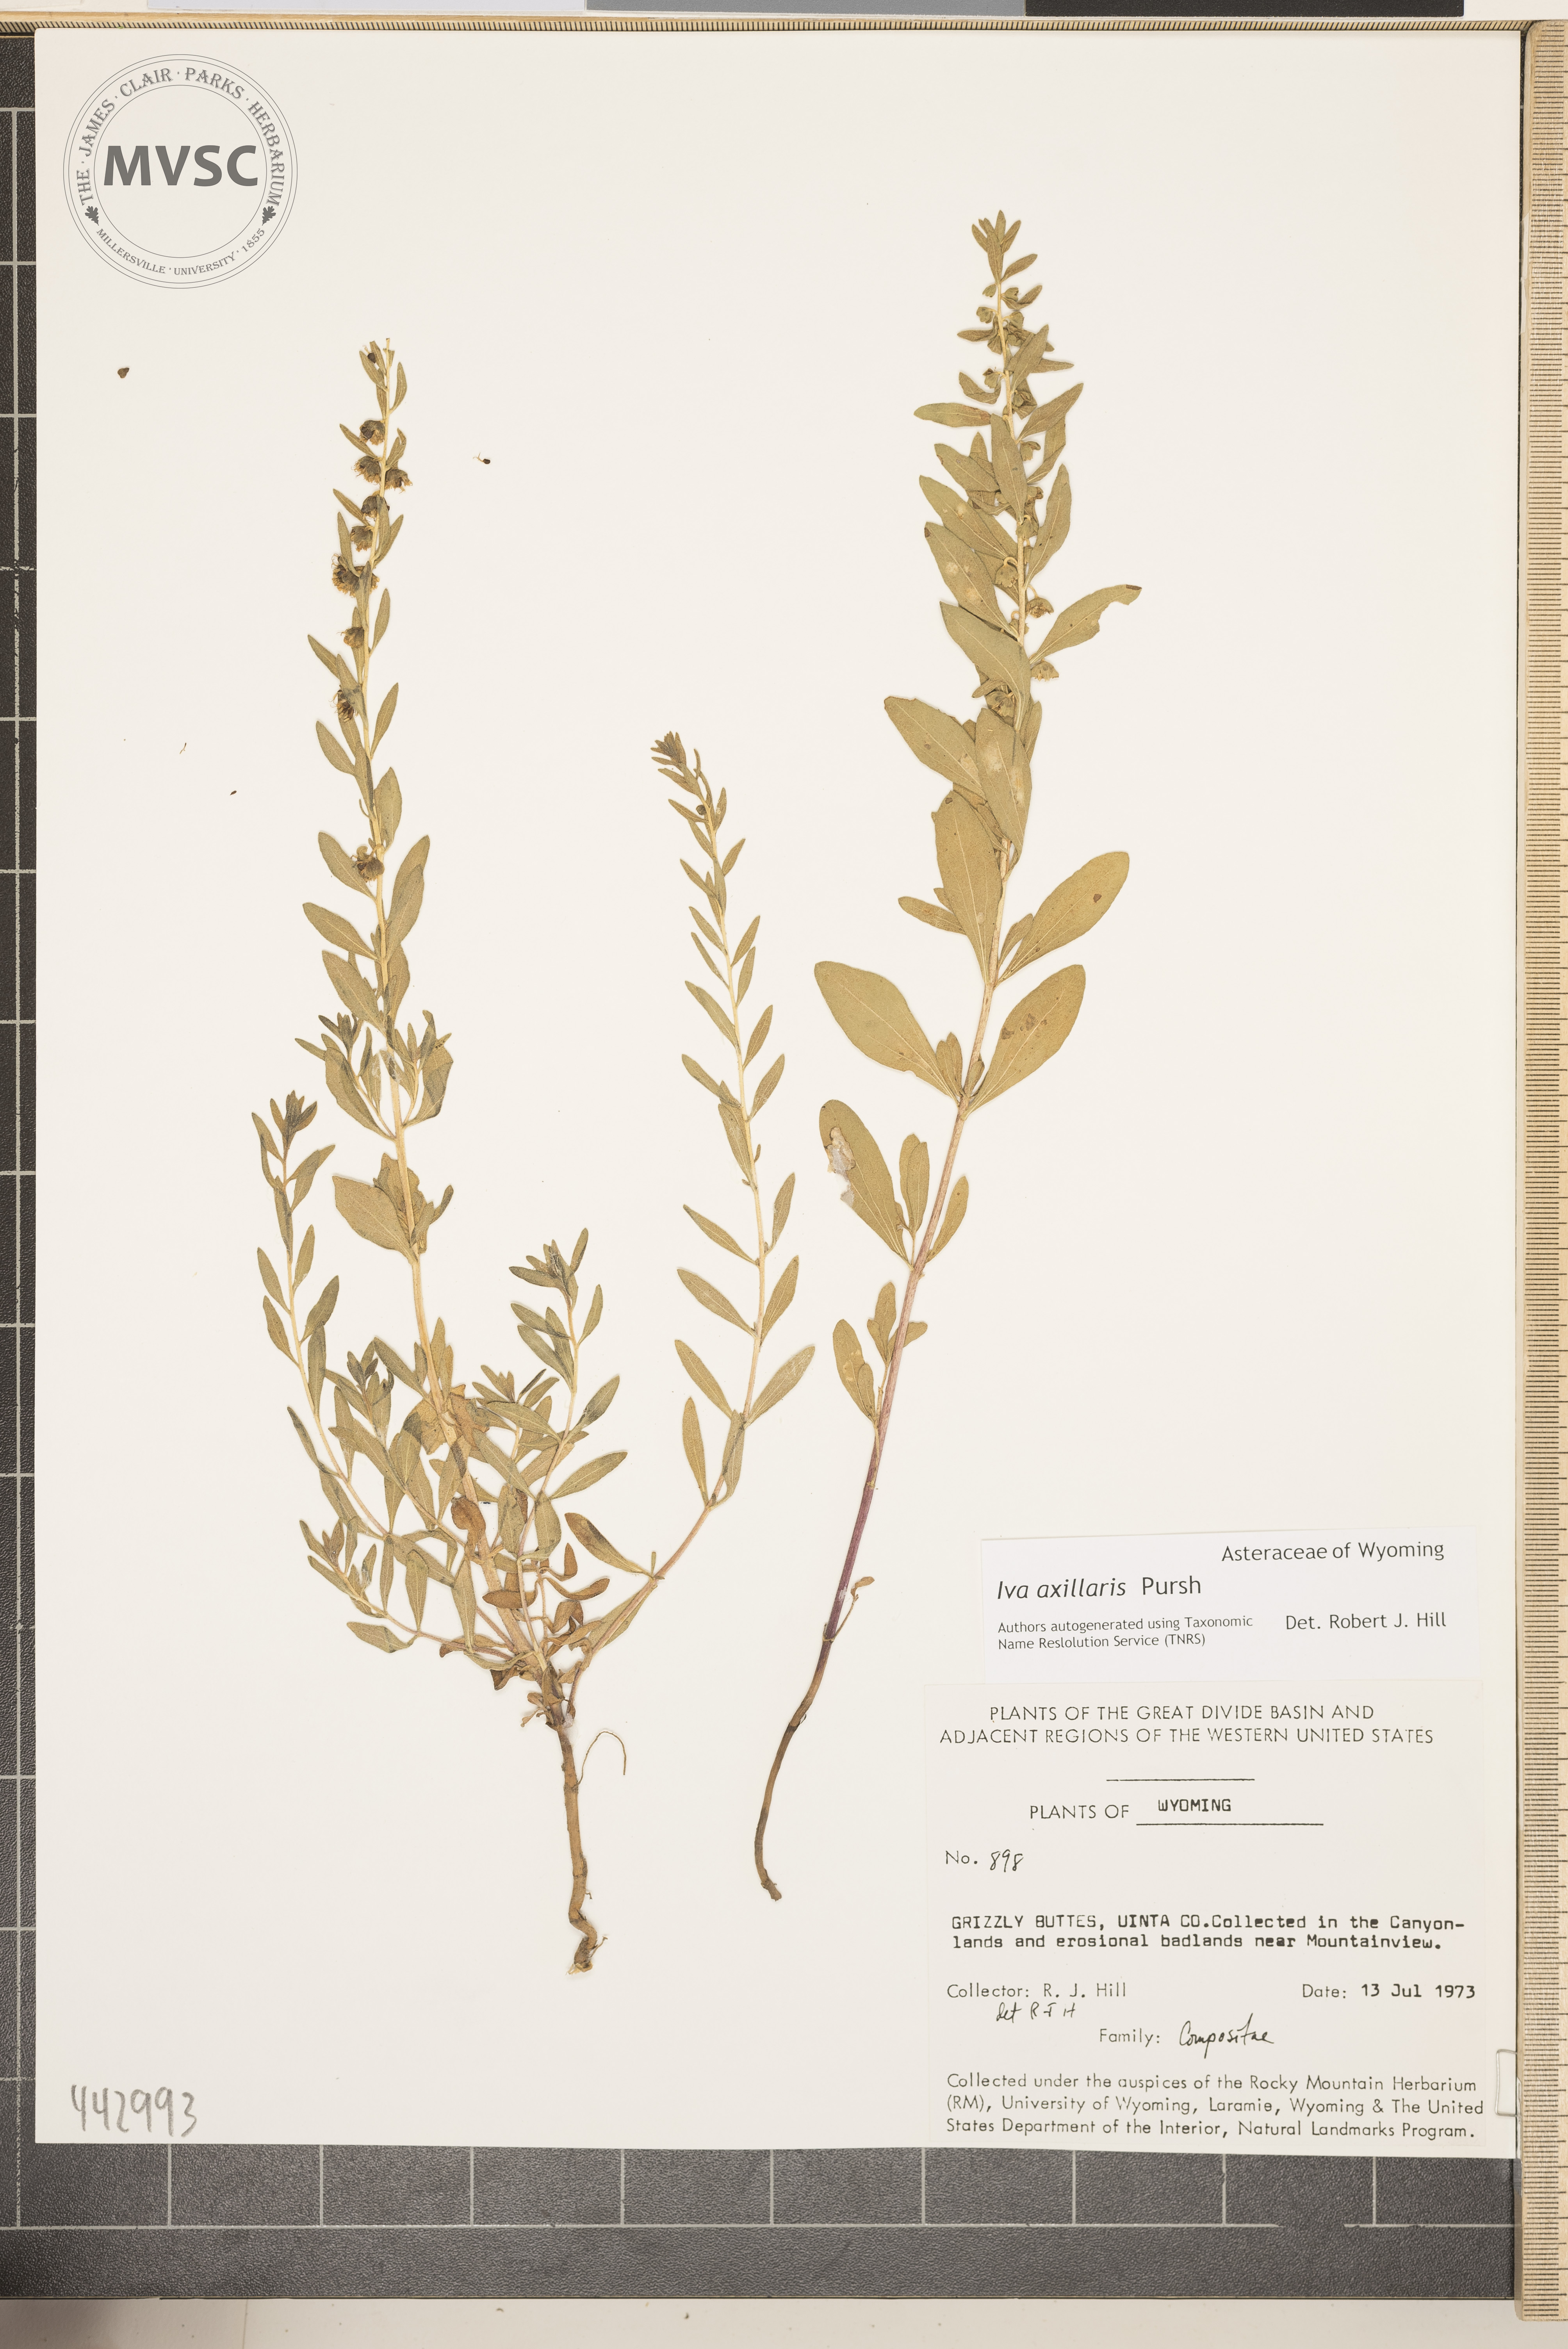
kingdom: Plantae
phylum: Tracheophyta
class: Magnoliopsida
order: Asterales
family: Asteraceae
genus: Iva
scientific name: Iva axillaris
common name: Poverty sumpweed
